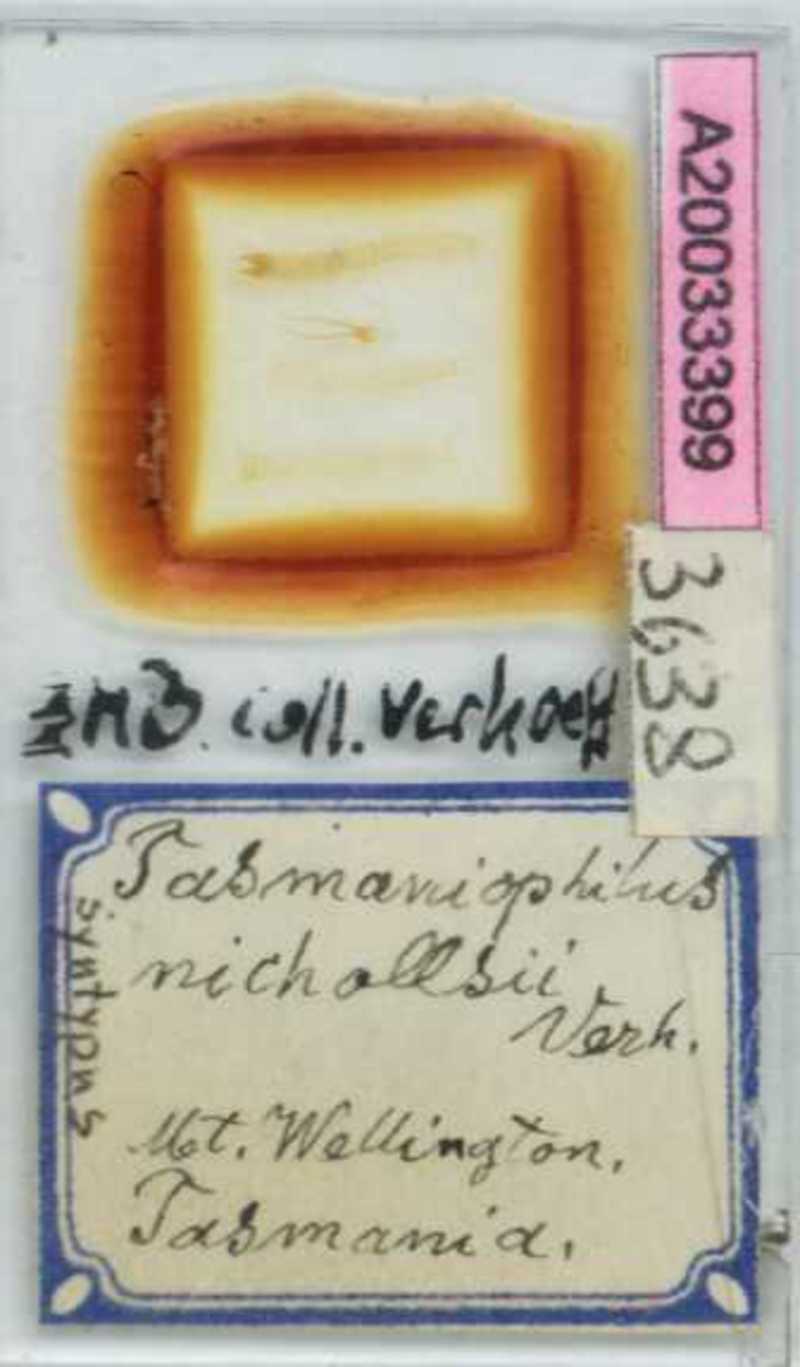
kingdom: Animalia
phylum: Arthropoda
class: Chilopoda
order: Geophilomorpha
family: Geophilidae
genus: Tasmanophilus
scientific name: Tasmanophilus opinatus
